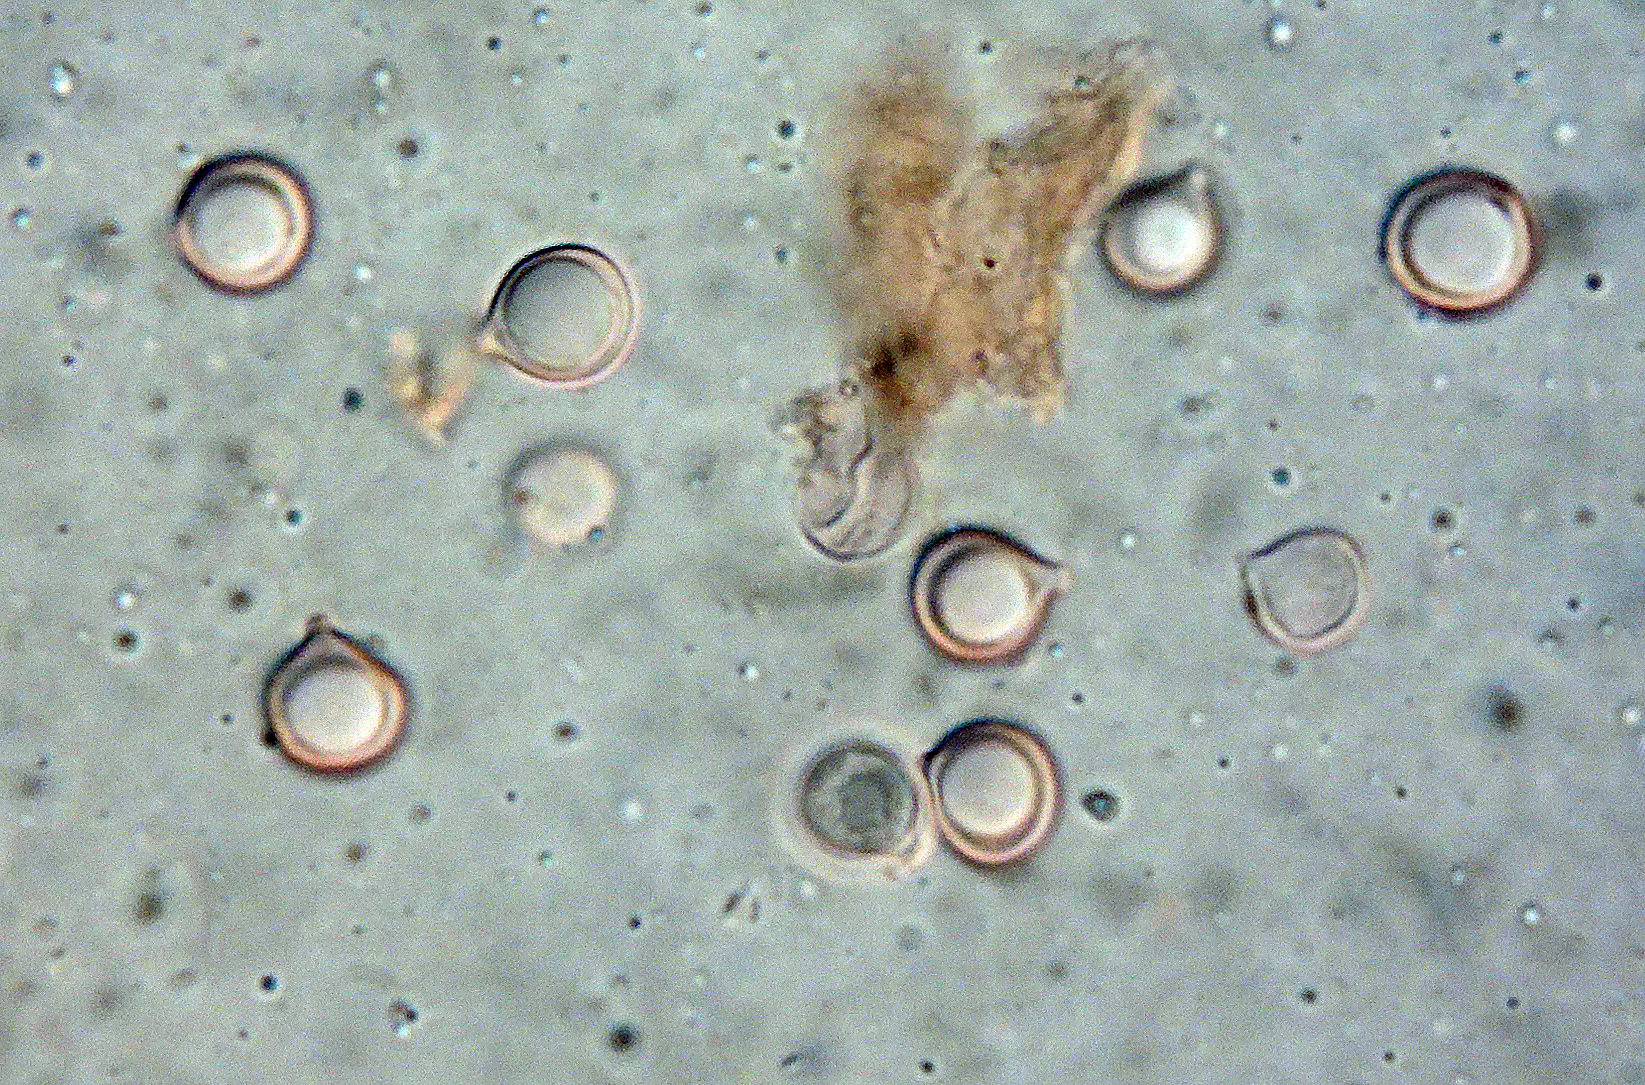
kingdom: Fungi
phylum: Basidiomycota
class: Agaricomycetes
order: Agaricales
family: Clavariaceae
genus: Clavulinopsis
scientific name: Clavulinopsis umbrinella
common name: gulgrå køllesvamp
